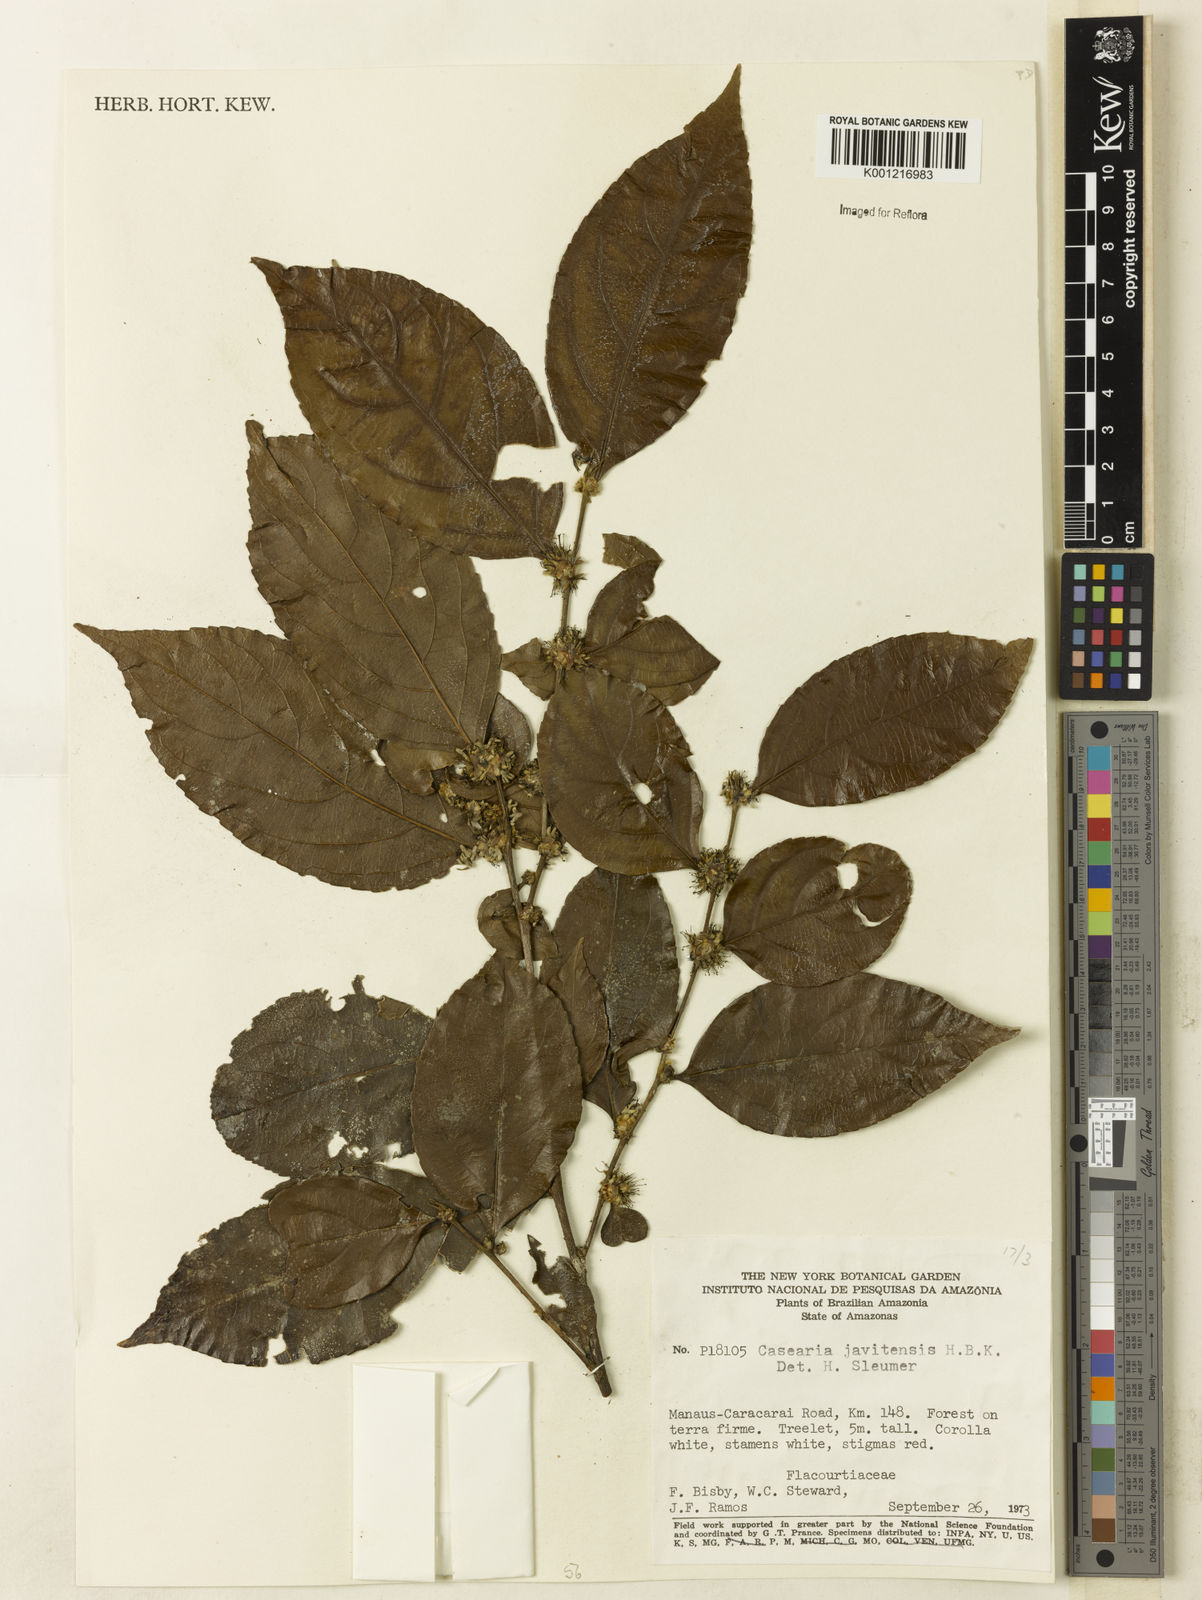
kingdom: Plantae
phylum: Tracheophyta
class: Magnoliopsida
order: Malpighiales
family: Salicaceae
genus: Piparea
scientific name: Piparea multiflora
